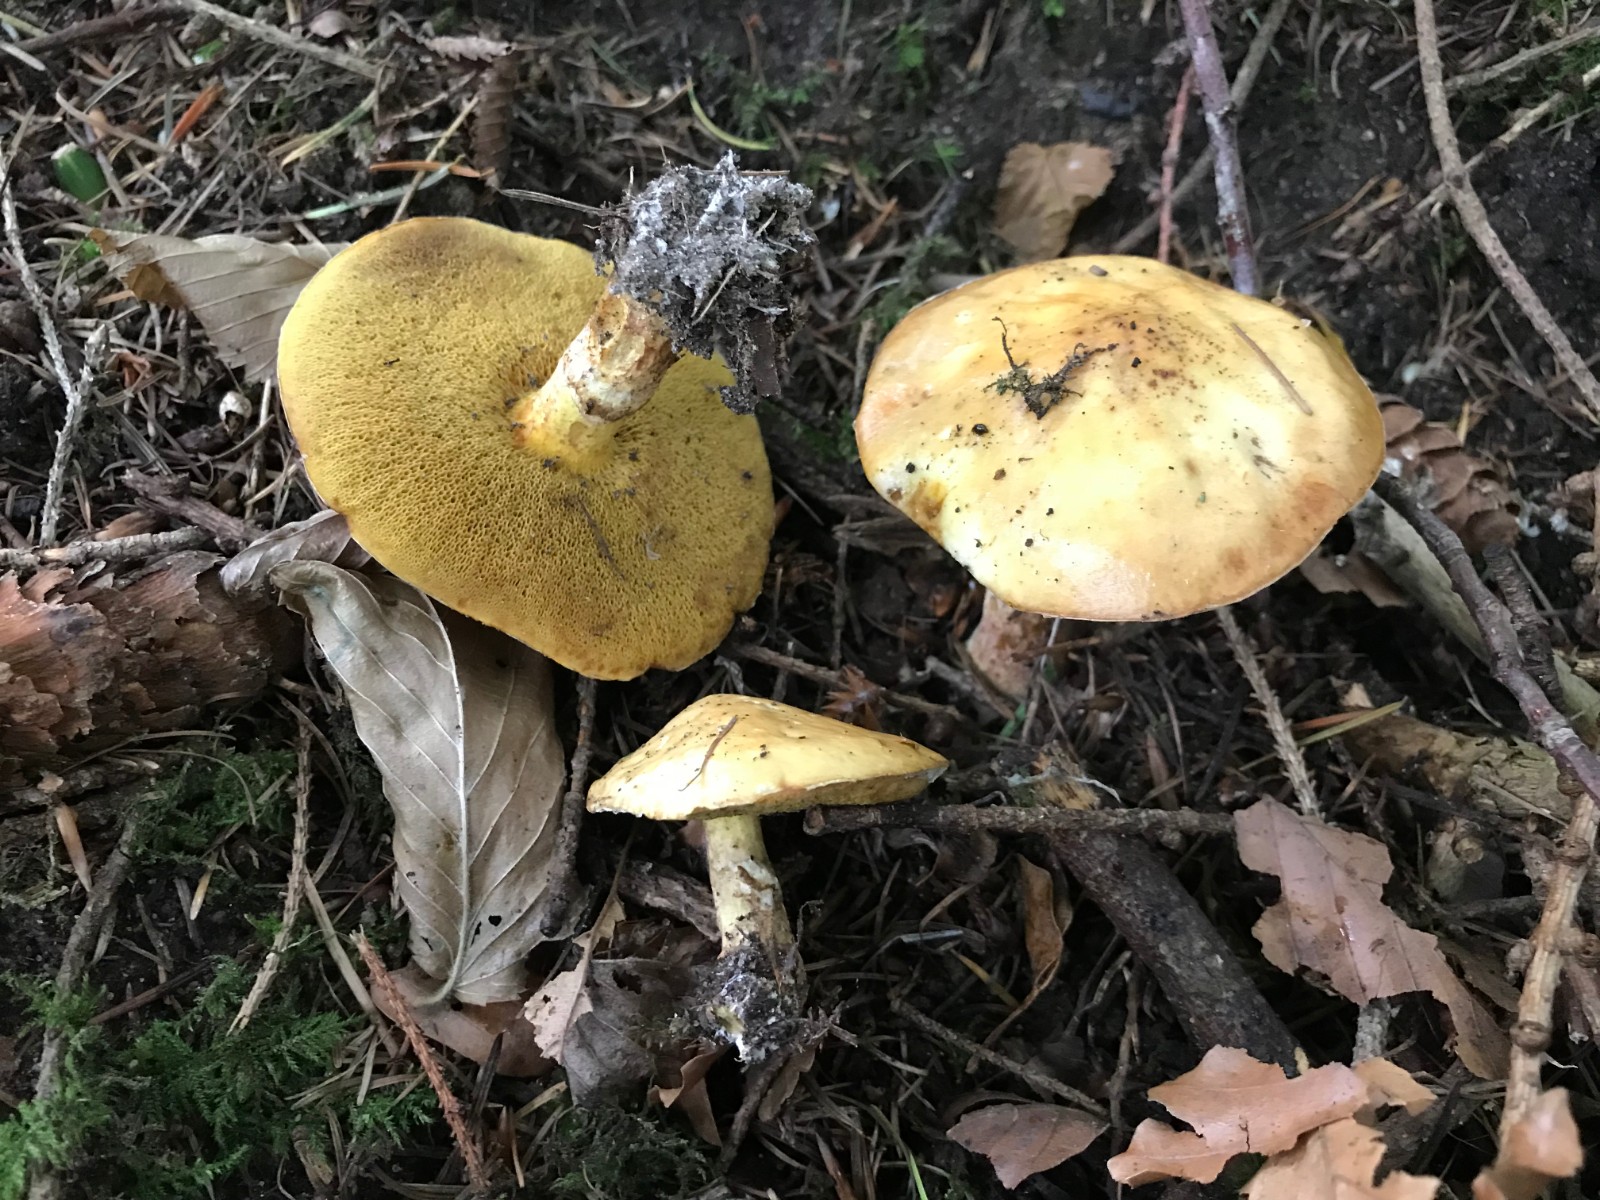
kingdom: Fungi
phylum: Basidiomycota
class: Agaricomycetes
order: Boletales
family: Suillaceae
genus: Suillus
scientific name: Suillus grevillei
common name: lærke-slimrørhat
